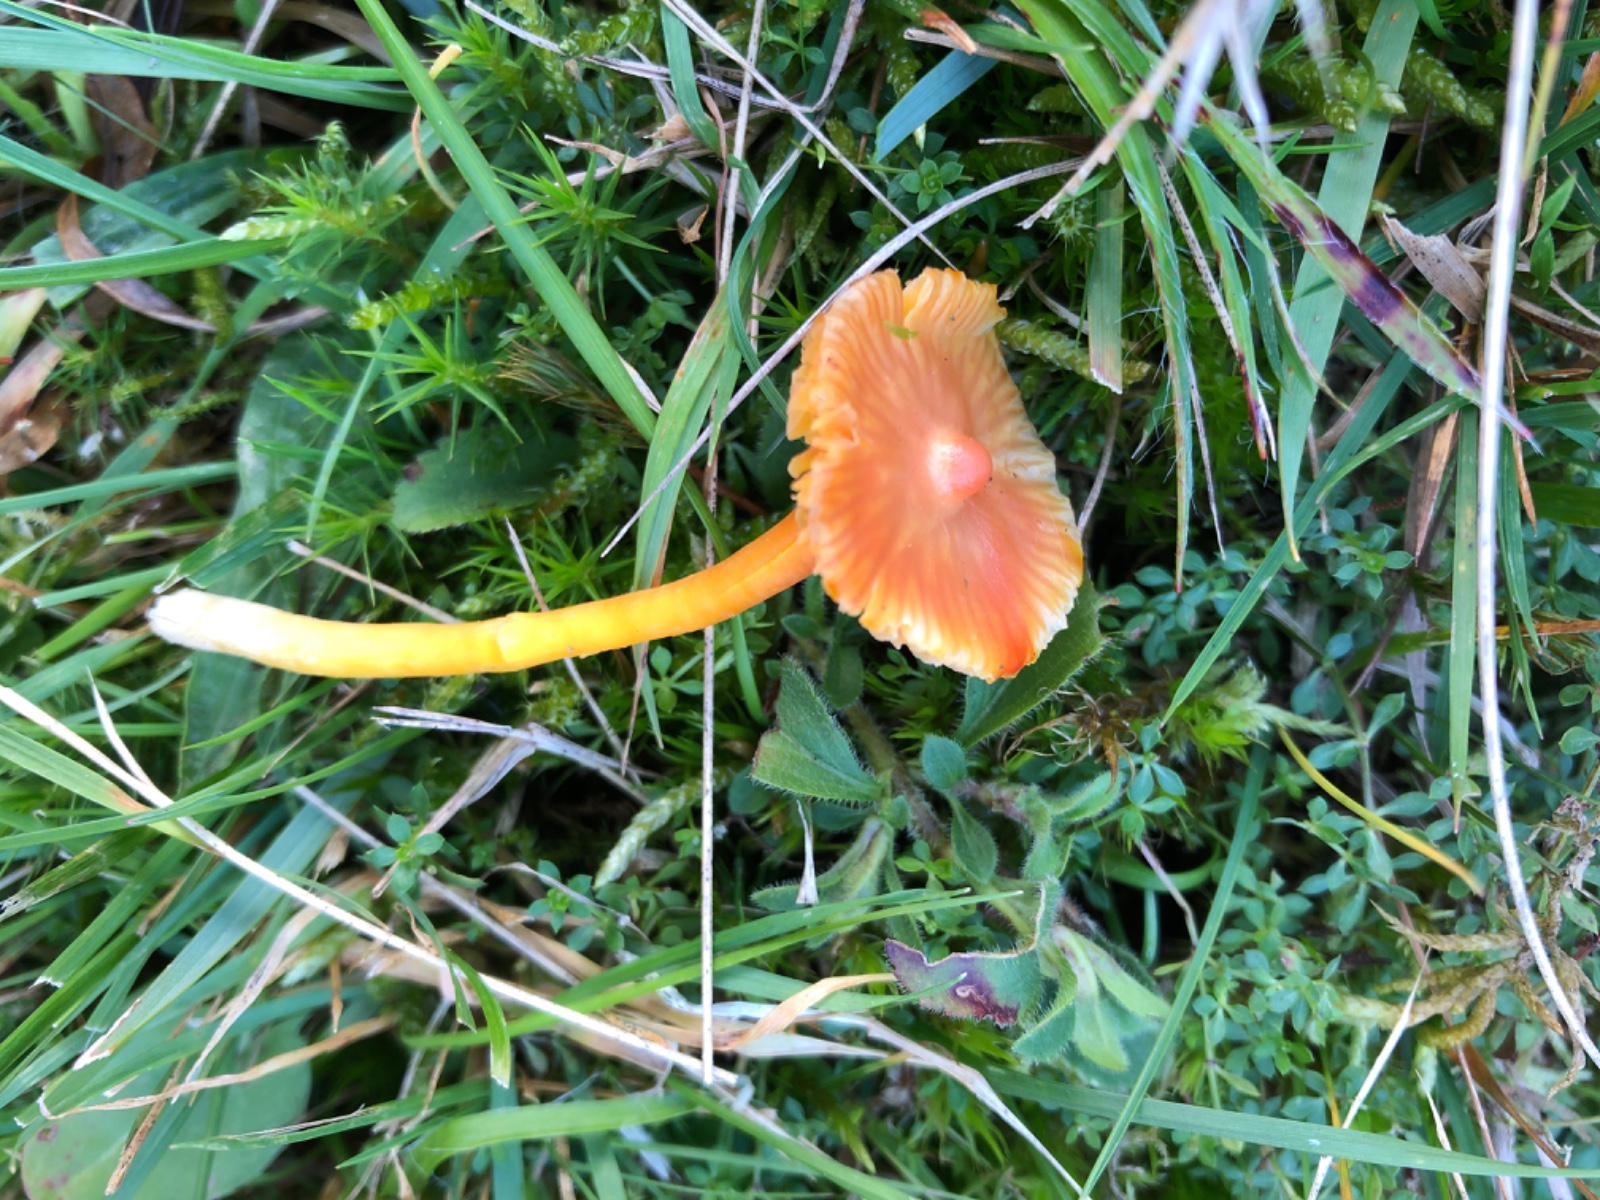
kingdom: Fungi
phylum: Basidiomycota
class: Agaricomycetes
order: Agaricales
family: Hygrophoraceae
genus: Hygrocybe
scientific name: Hygrocybe
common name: vokshat
